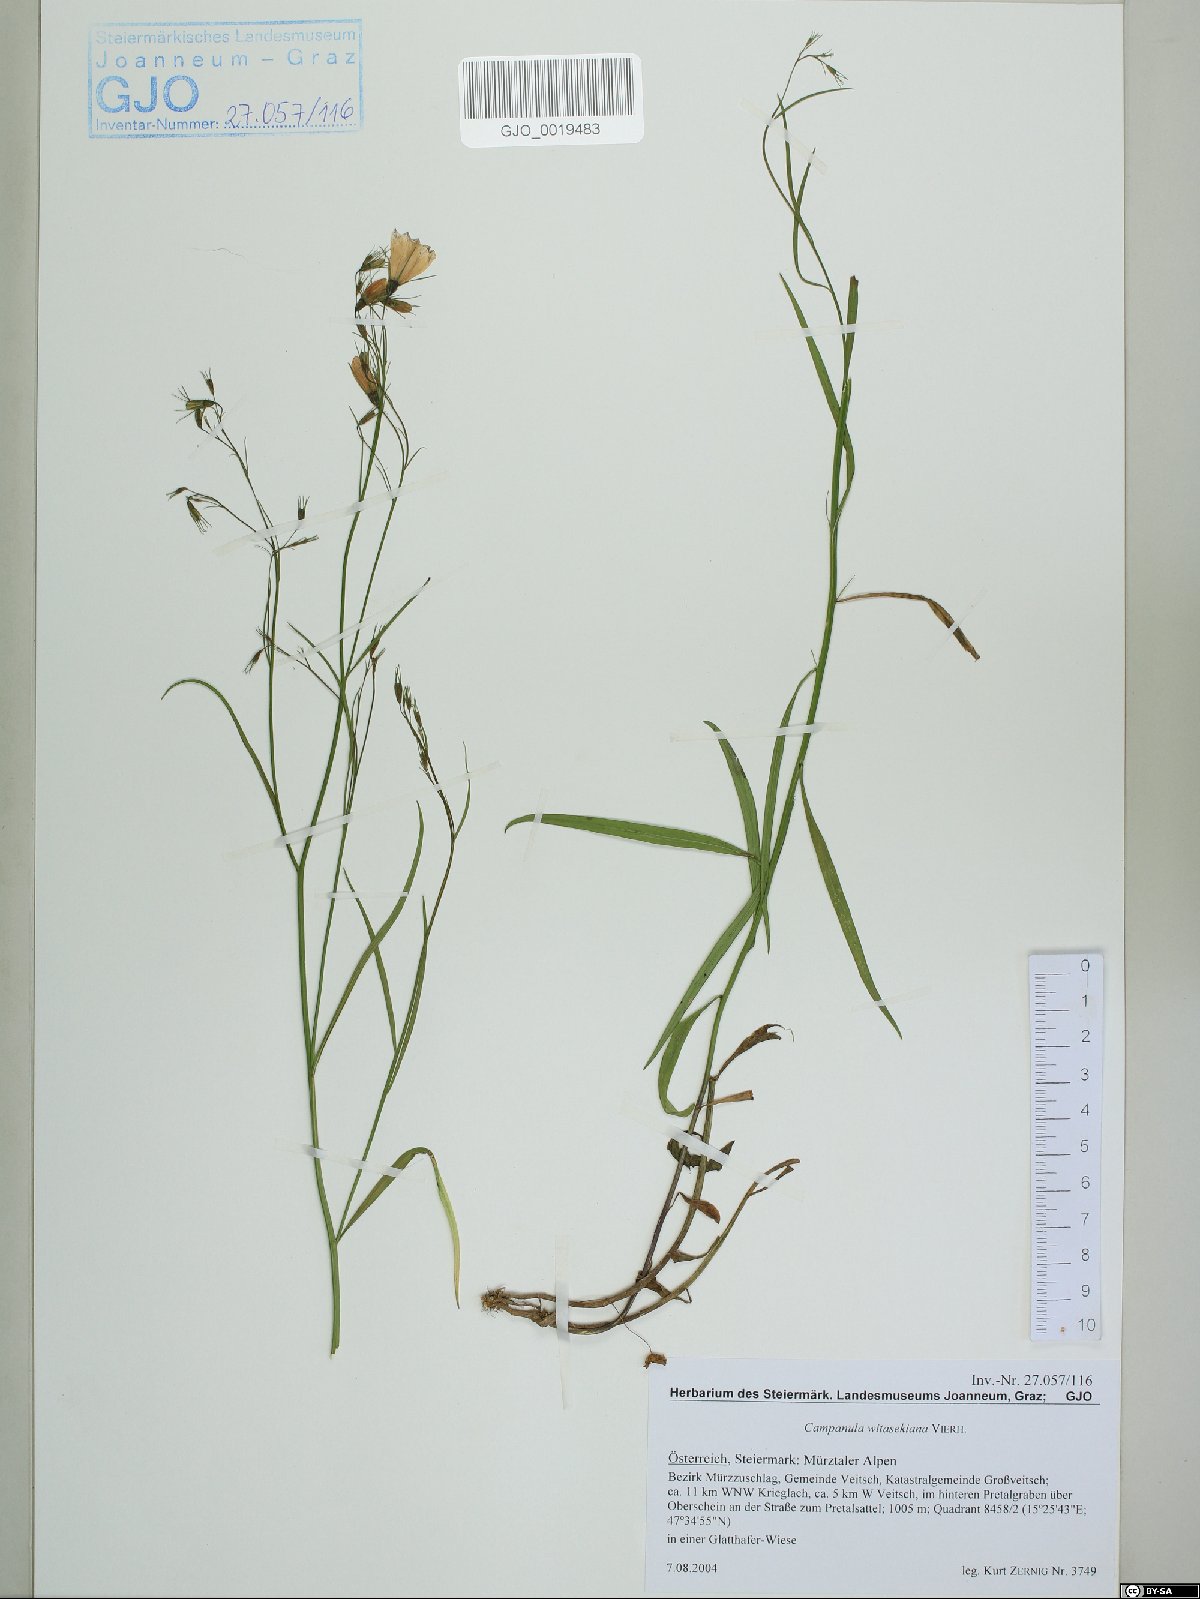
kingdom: Plantae
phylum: Tracheophyta
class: Magnoliopsida
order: Asterales
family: Campanulaceae
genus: Campanula
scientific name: Campanula witasekiana
